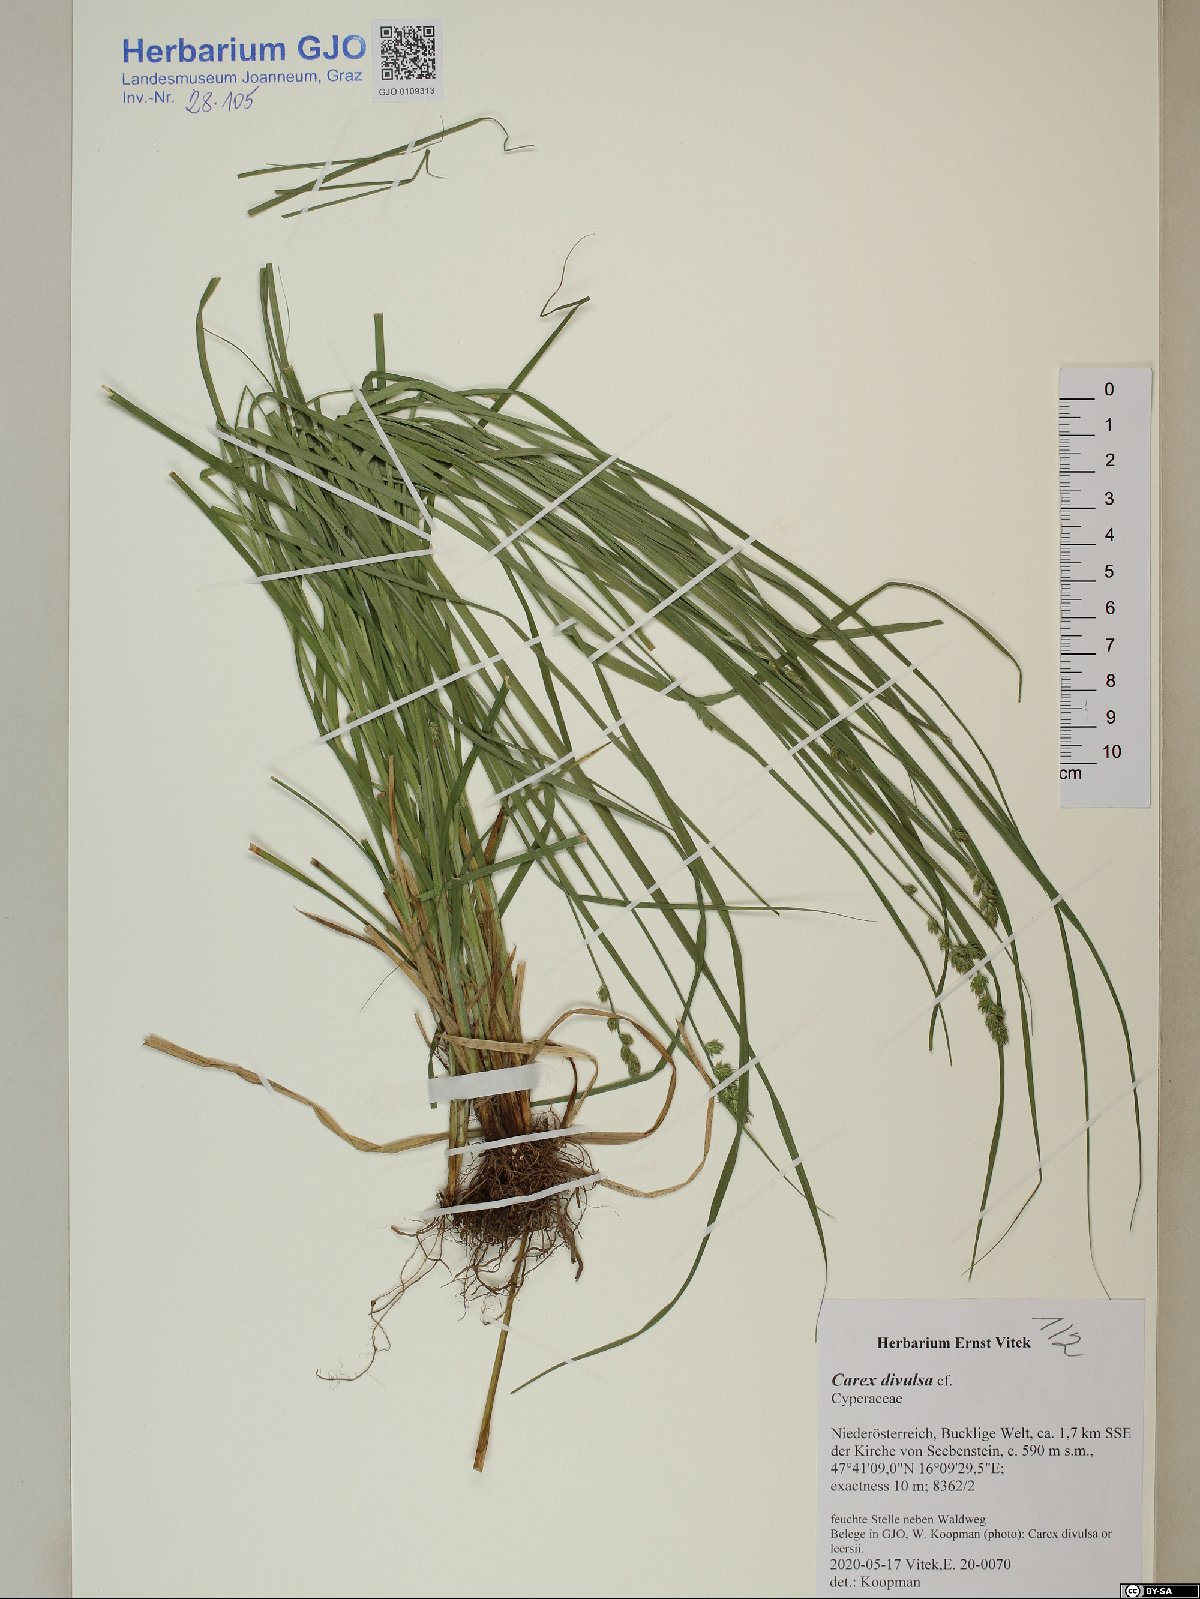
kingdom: Plantae
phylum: Tracheophyta
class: Liliopsida
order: Poales
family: Cyperaceae
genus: Carex
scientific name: Carex divulsa
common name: Grassland sedge
